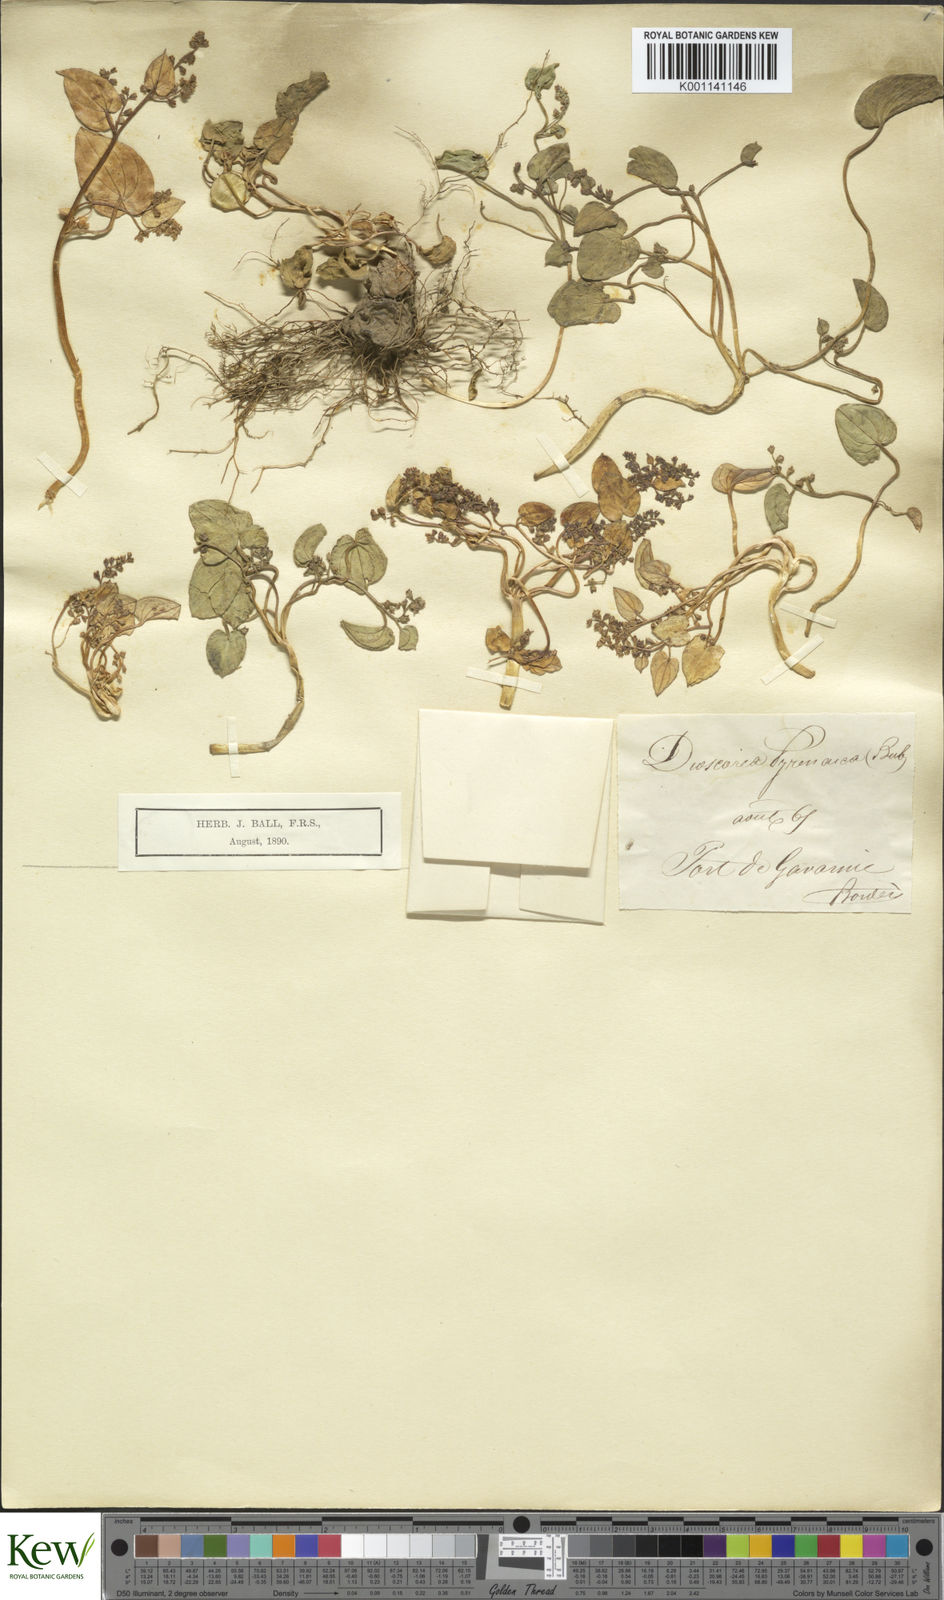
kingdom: Plantae
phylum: Tracheophyta
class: Liliopsida
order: Dioscoreales
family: Dioscoreaceae
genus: Dioscorea
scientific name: Dioscorea
